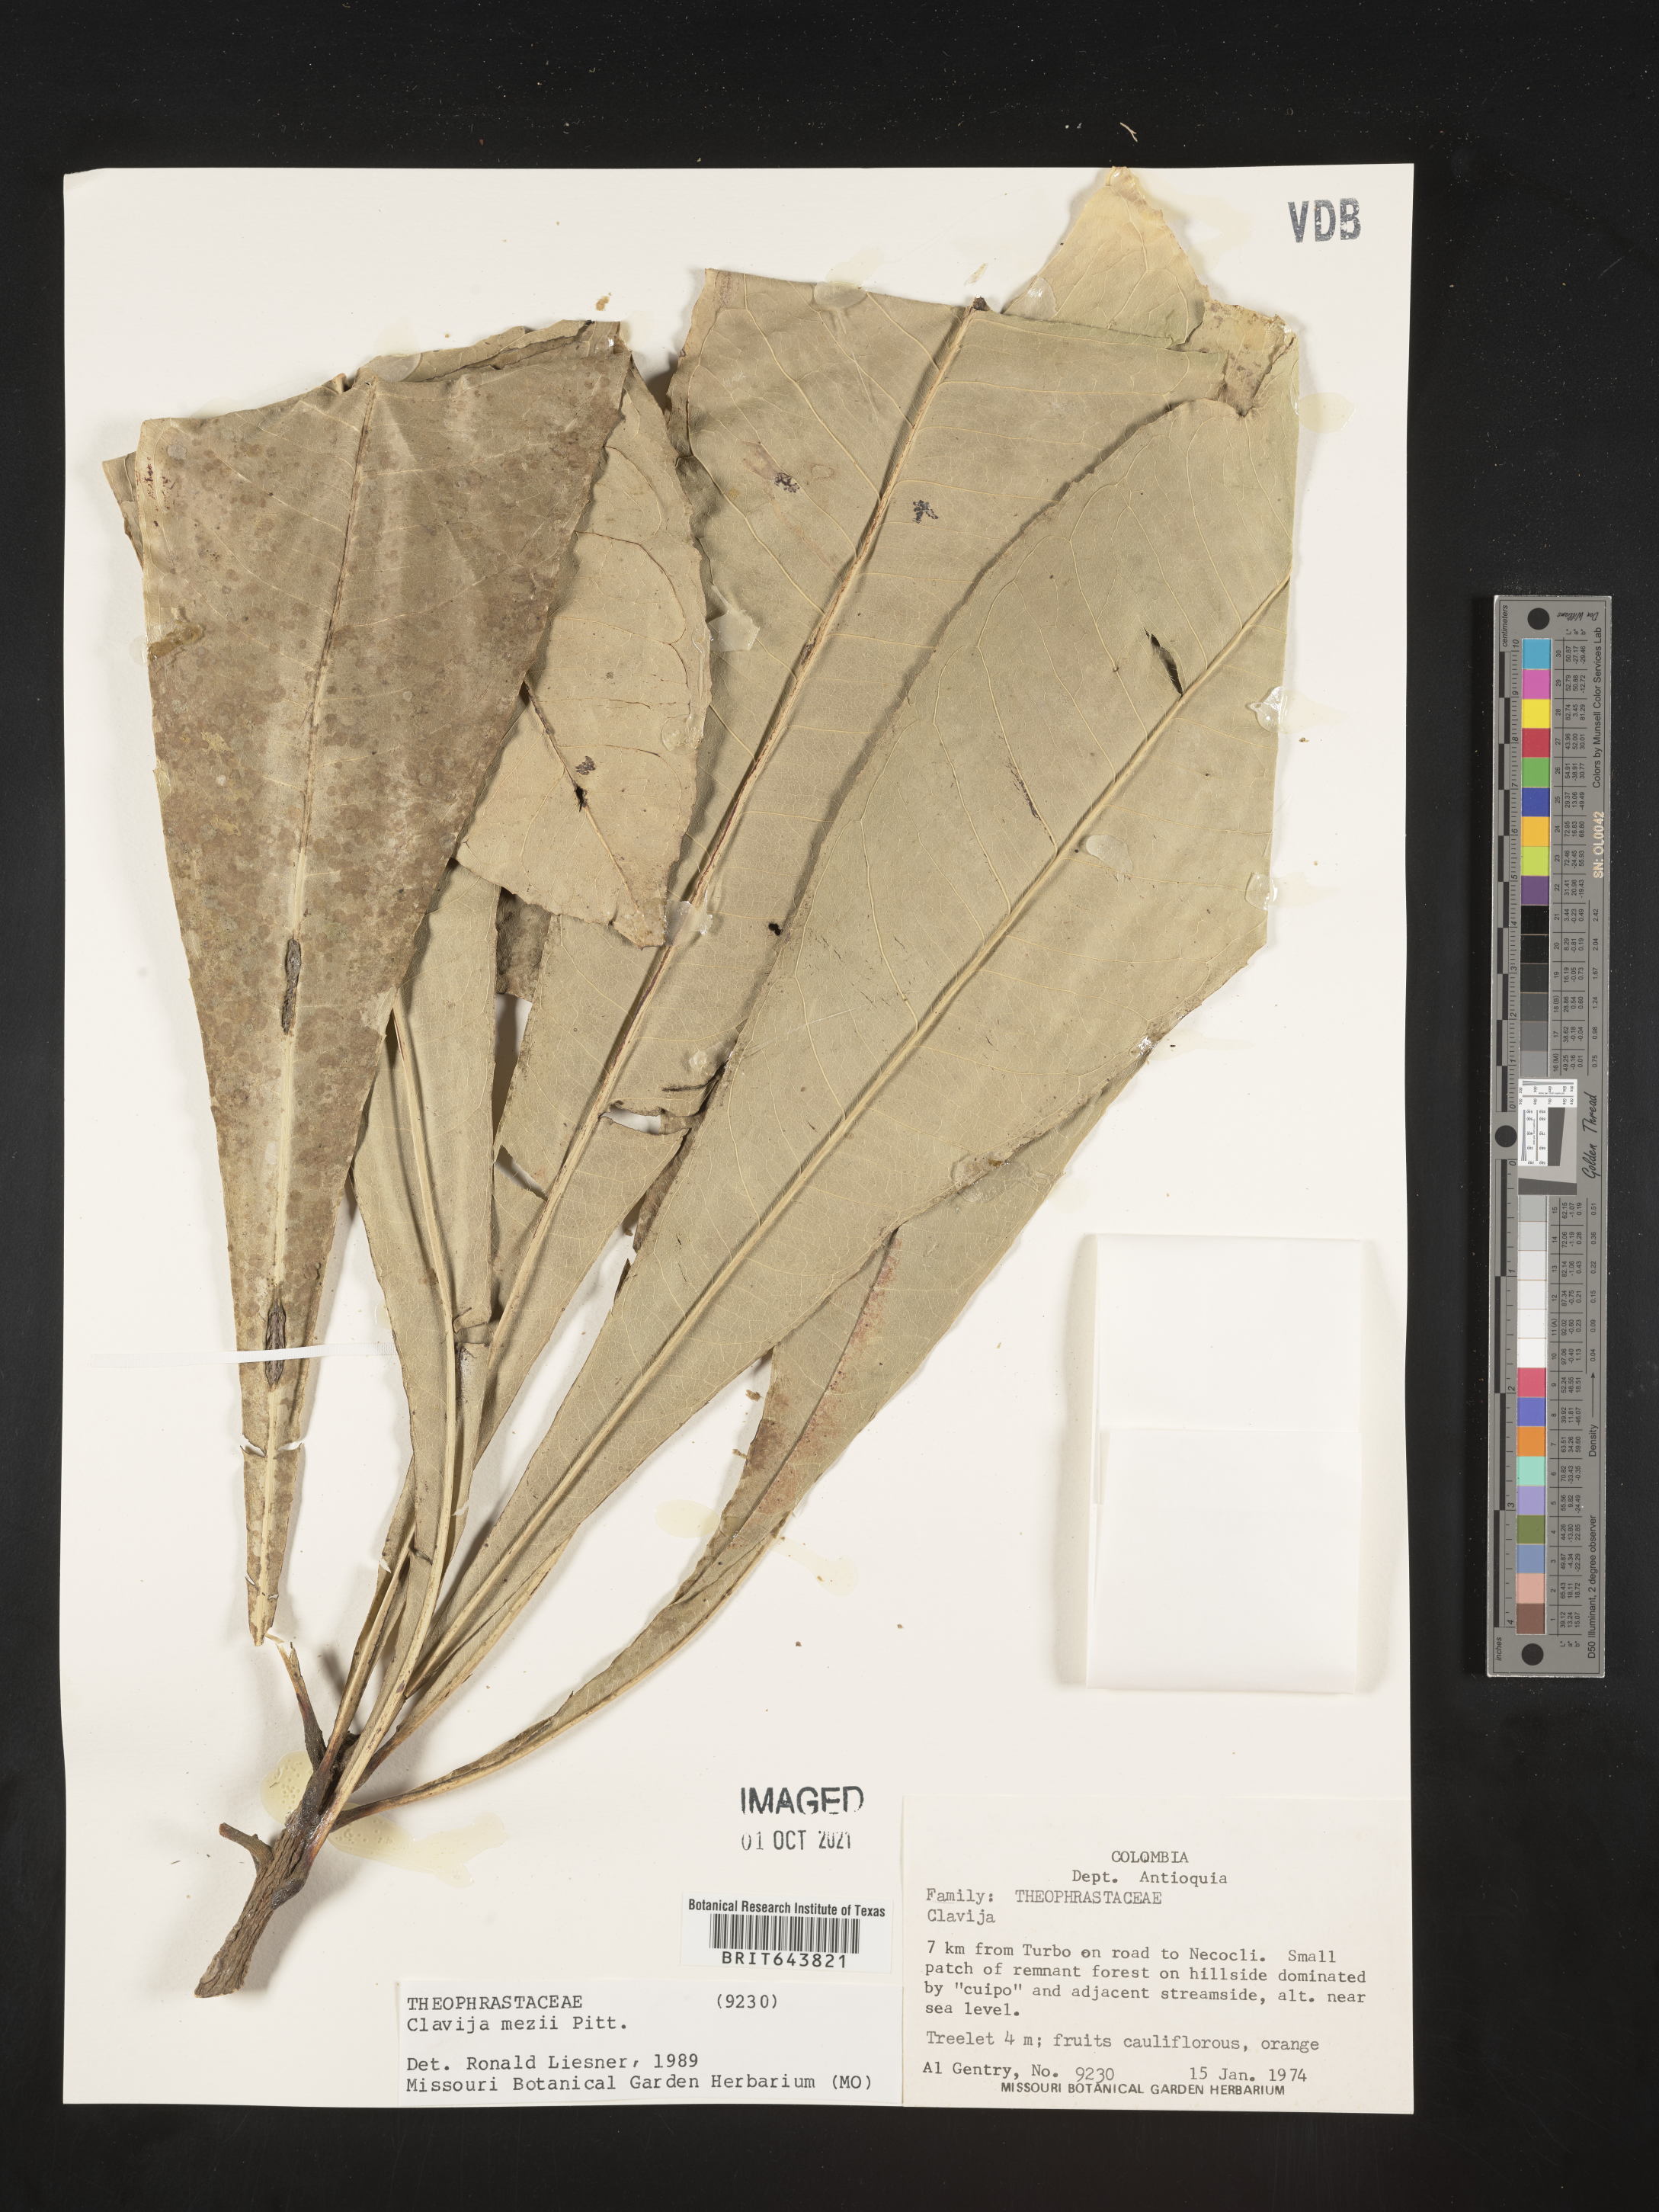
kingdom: Plantae
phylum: Tracheophyta
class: Magnoliopsida
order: Ericales
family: Primulaceae
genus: Clavija
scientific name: Clavija
